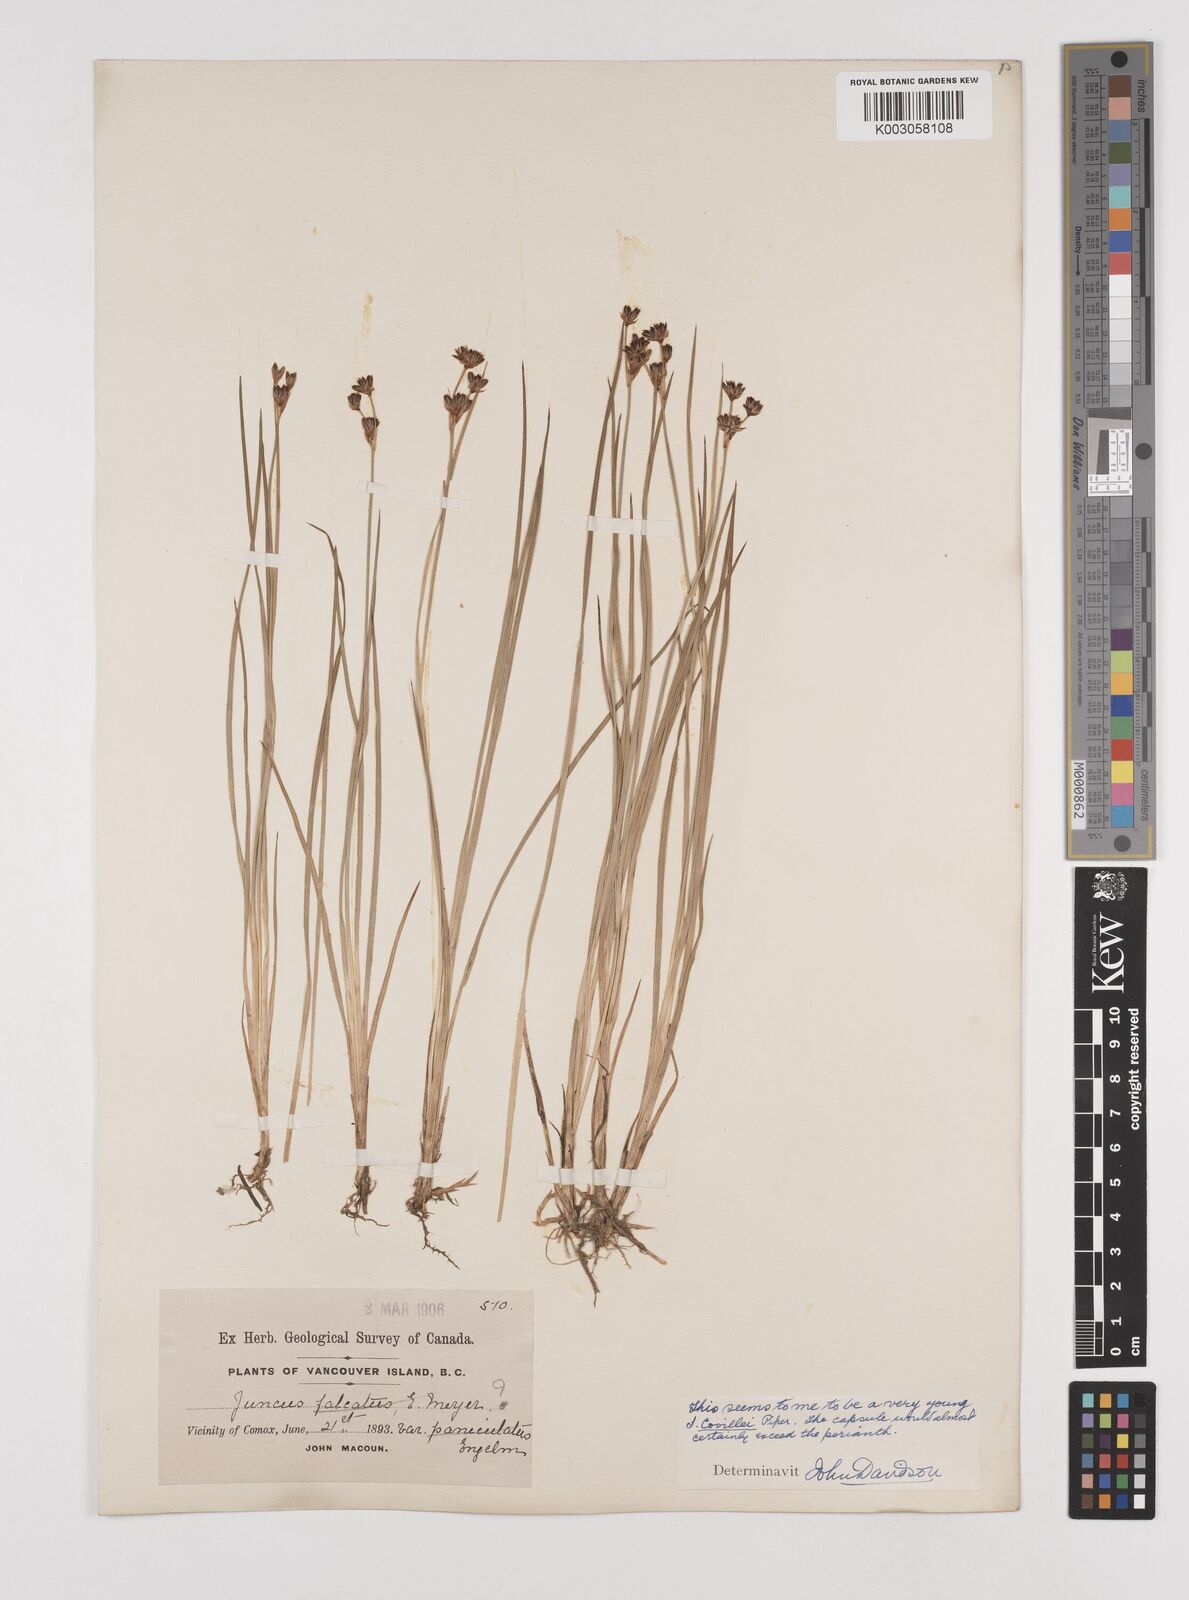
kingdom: Plantae
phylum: Tracheophyta
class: Liliopsida
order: Poales
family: Juncaceae
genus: Juncus
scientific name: Juncus covillei
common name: Coville's rush
